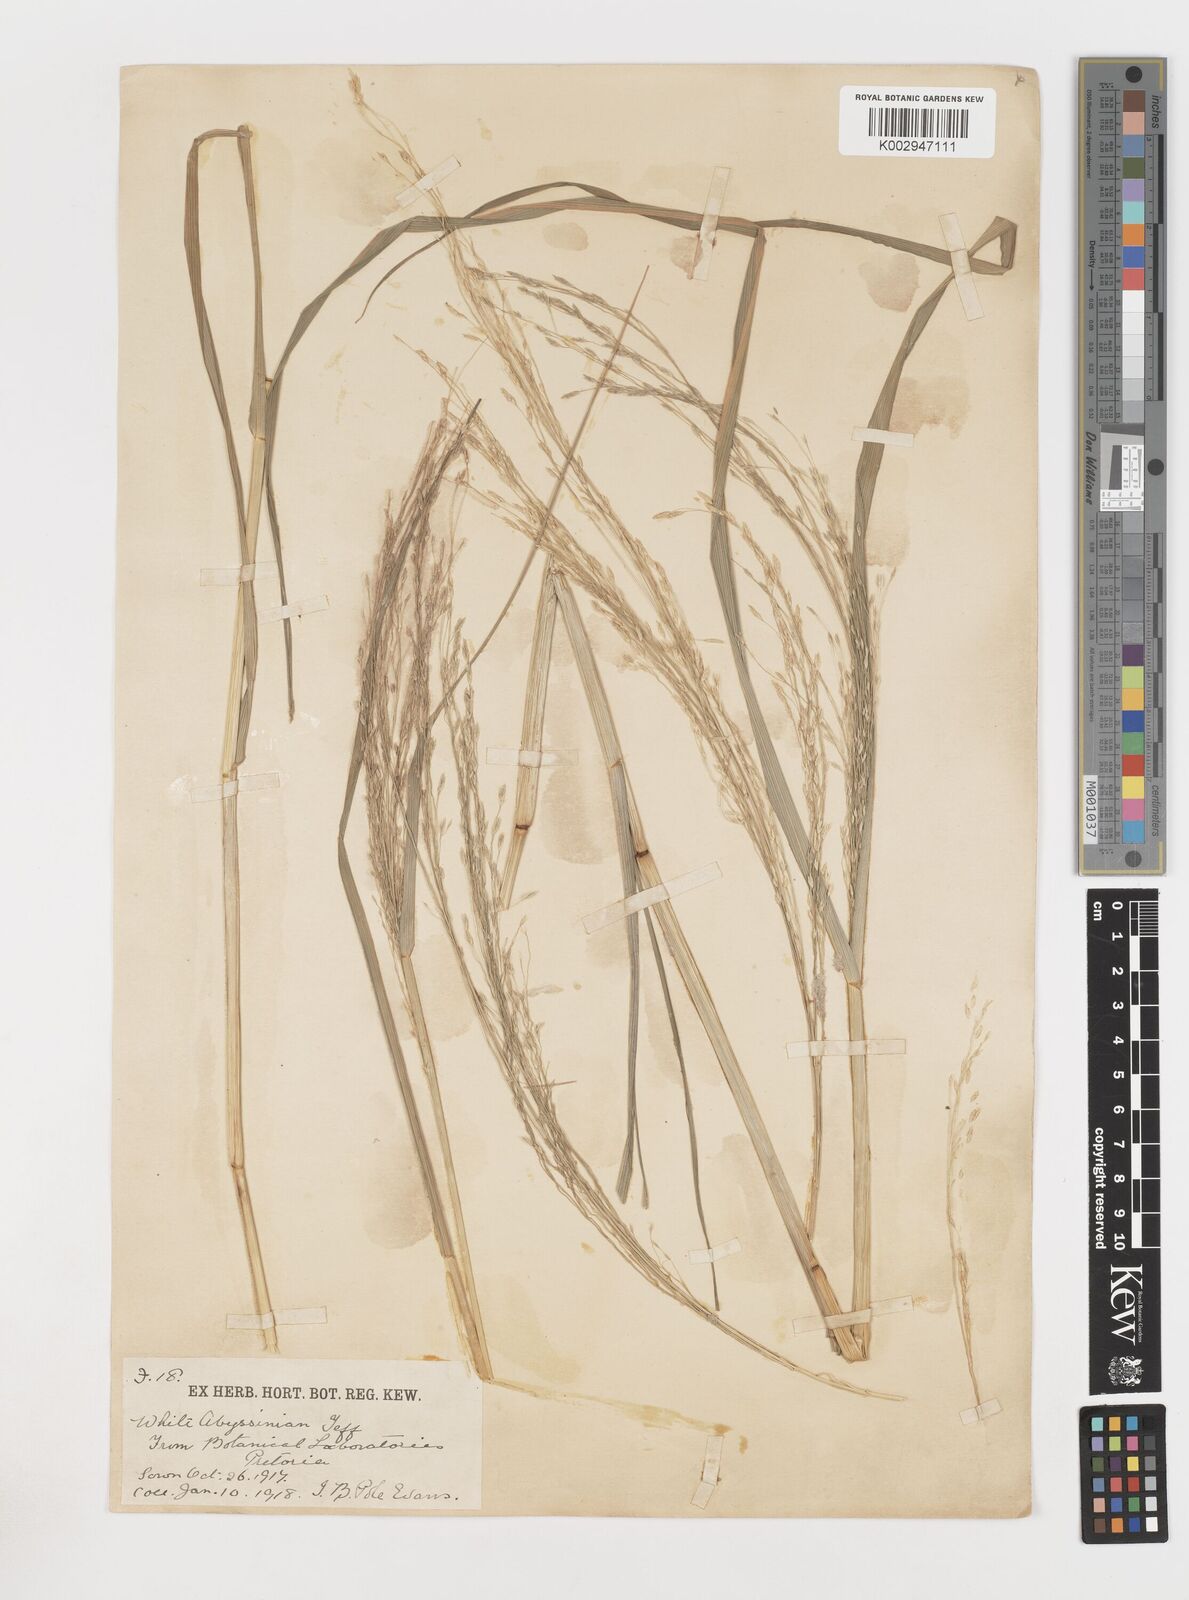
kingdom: Plantae
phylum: Tracheophyta
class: Liliopsida
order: Poales
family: Poaceae
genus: Eragrostis
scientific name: Eragrostis tef
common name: Teff
